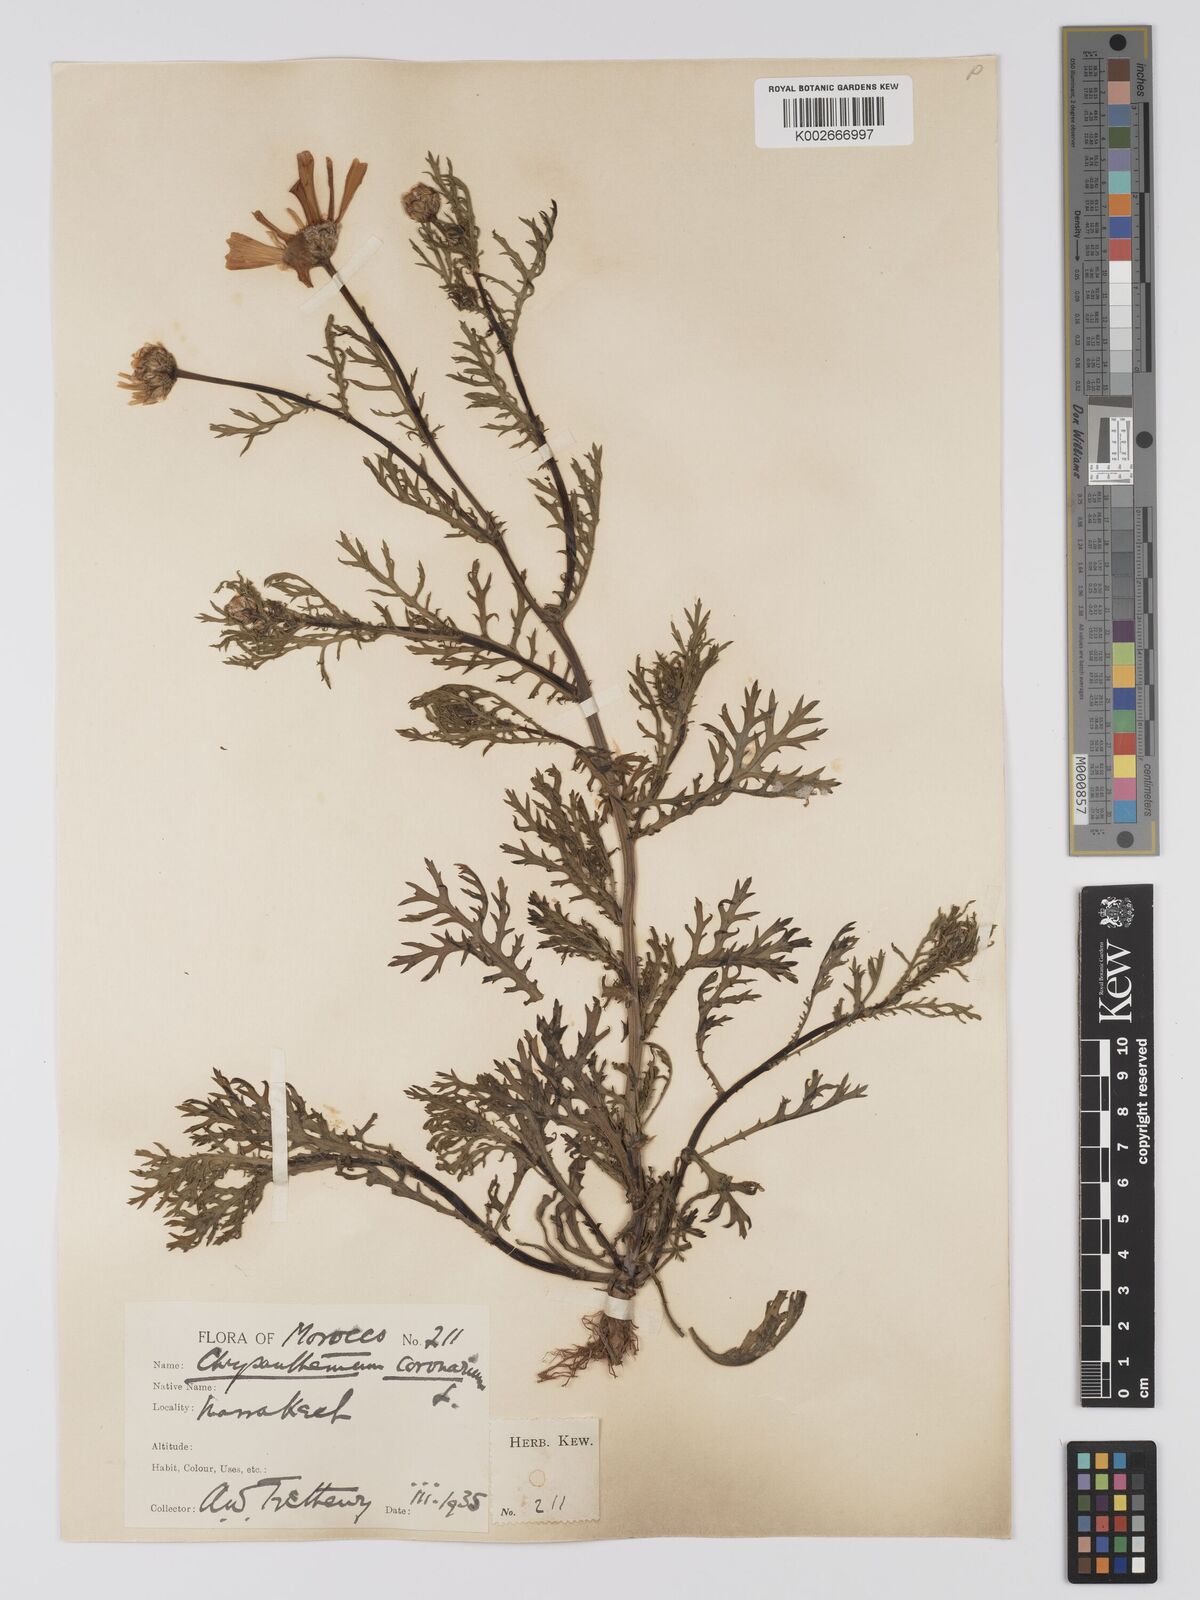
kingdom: Plantae
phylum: Tracheophyta
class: Magnoliopsida
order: Asterales
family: Asteraceae
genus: Glebionis
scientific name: Glebionis coronaria
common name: Crowndaisy
